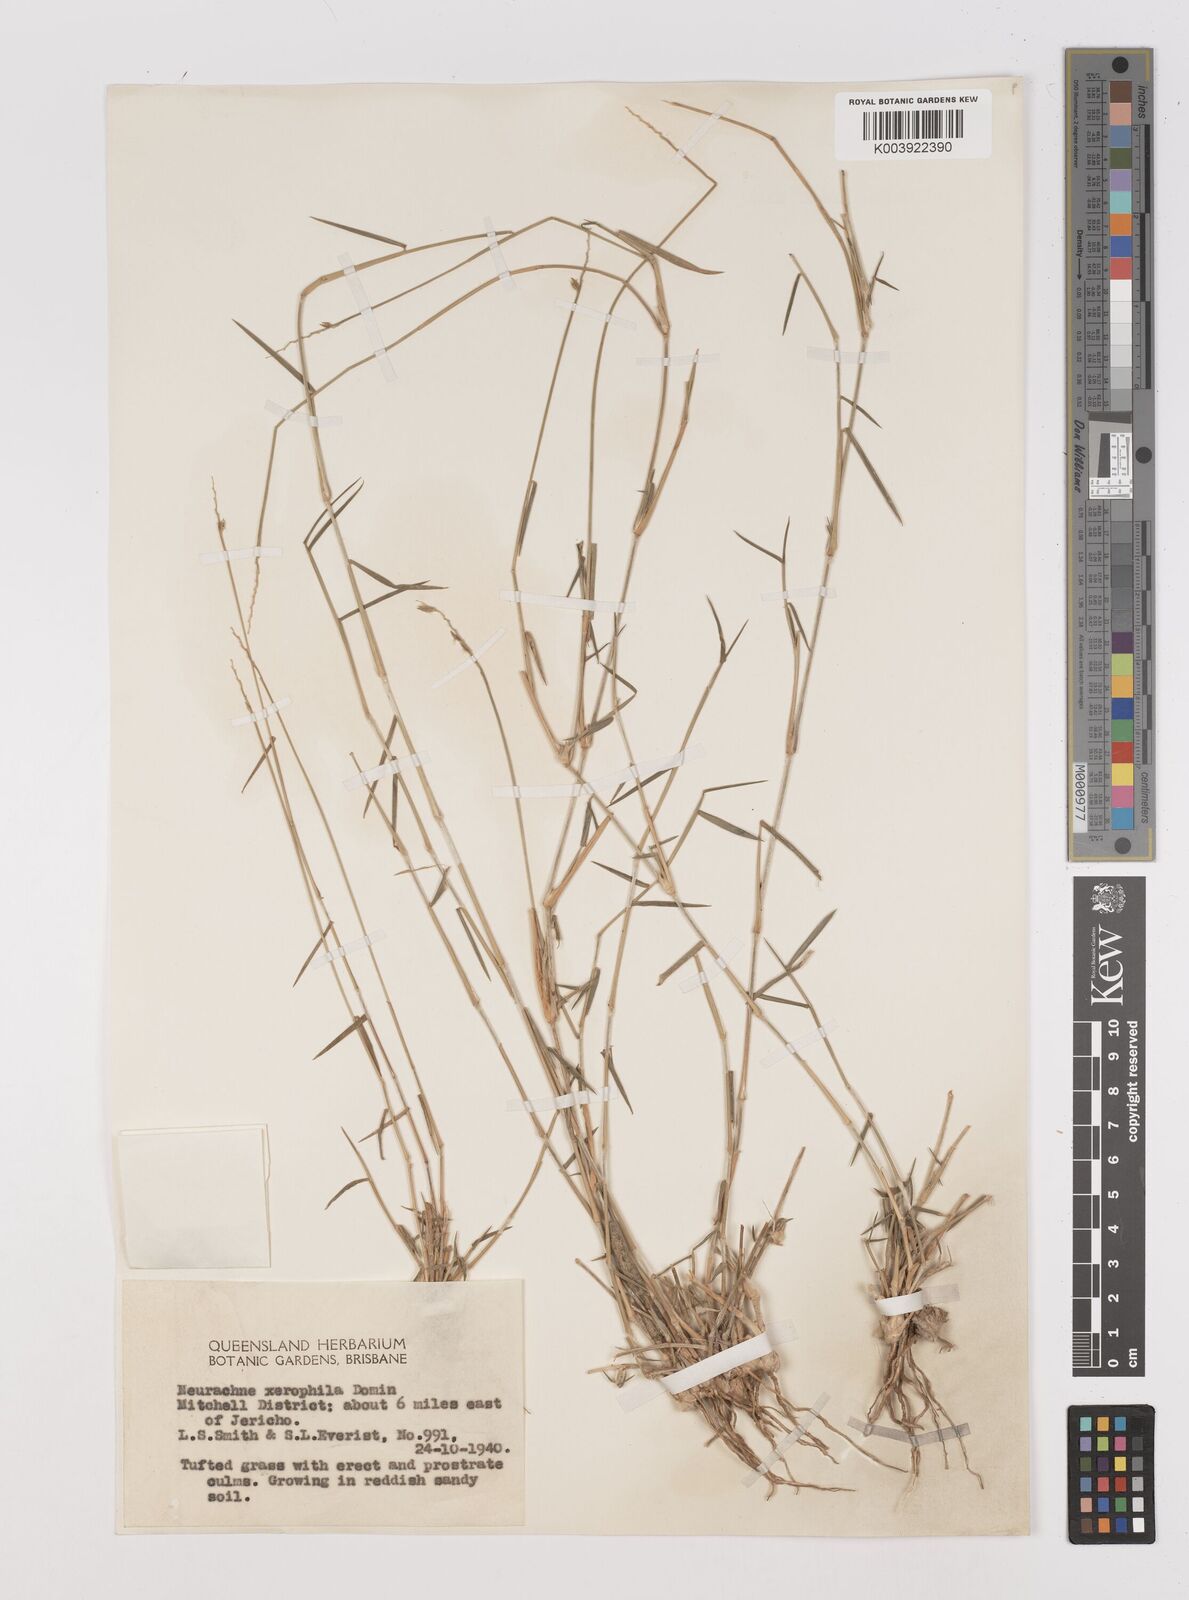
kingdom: Plantae
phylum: Tracheophyta
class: Liliopsida
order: Poales
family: Poaceae
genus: Thyridolepis
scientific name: Thyridolepis xerophila
